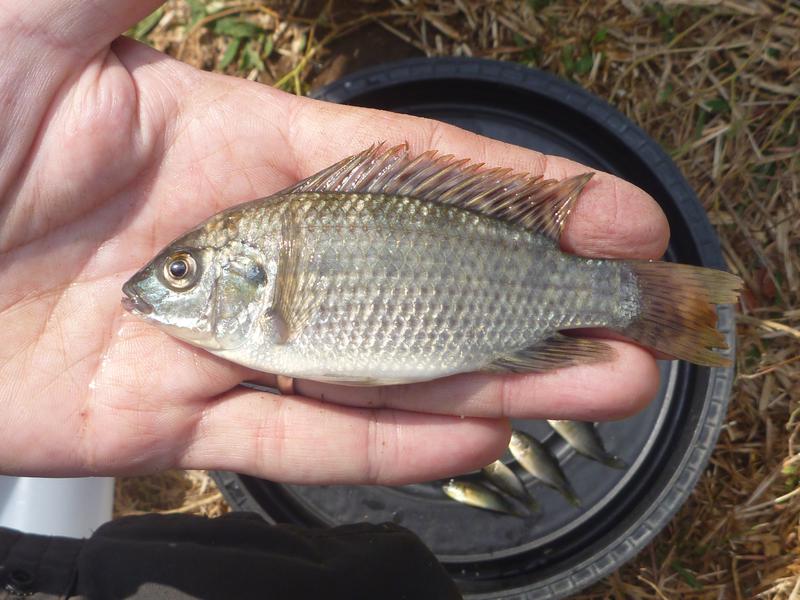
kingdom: Animalia
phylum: Chordata
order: Perciformes
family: Cichlidae
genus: Oreochromis
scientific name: Oreochromis shiranus
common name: Chilwa tilapia
